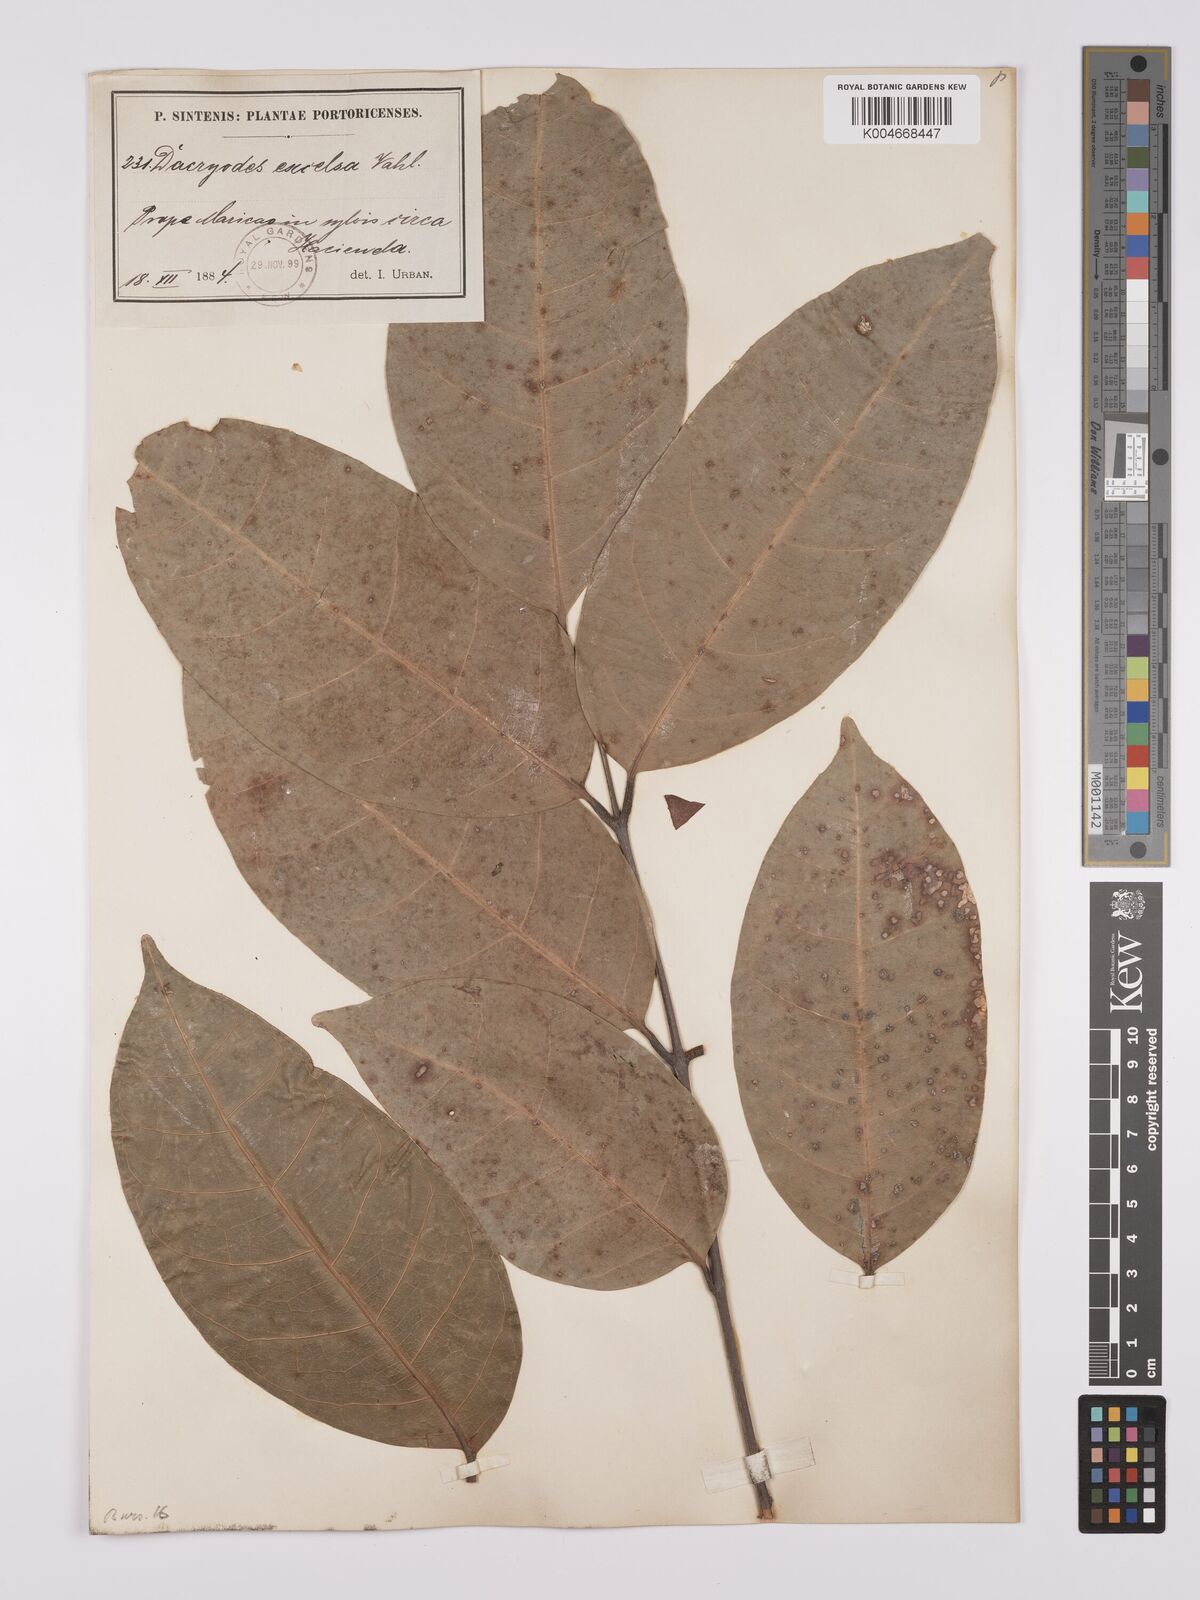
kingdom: Plantae
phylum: Tracheophyta
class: Magnoliopsida
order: Sapindales
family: Burseraceae
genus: Dacryodes
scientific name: Dacryodes excelsa
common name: Candlewood
